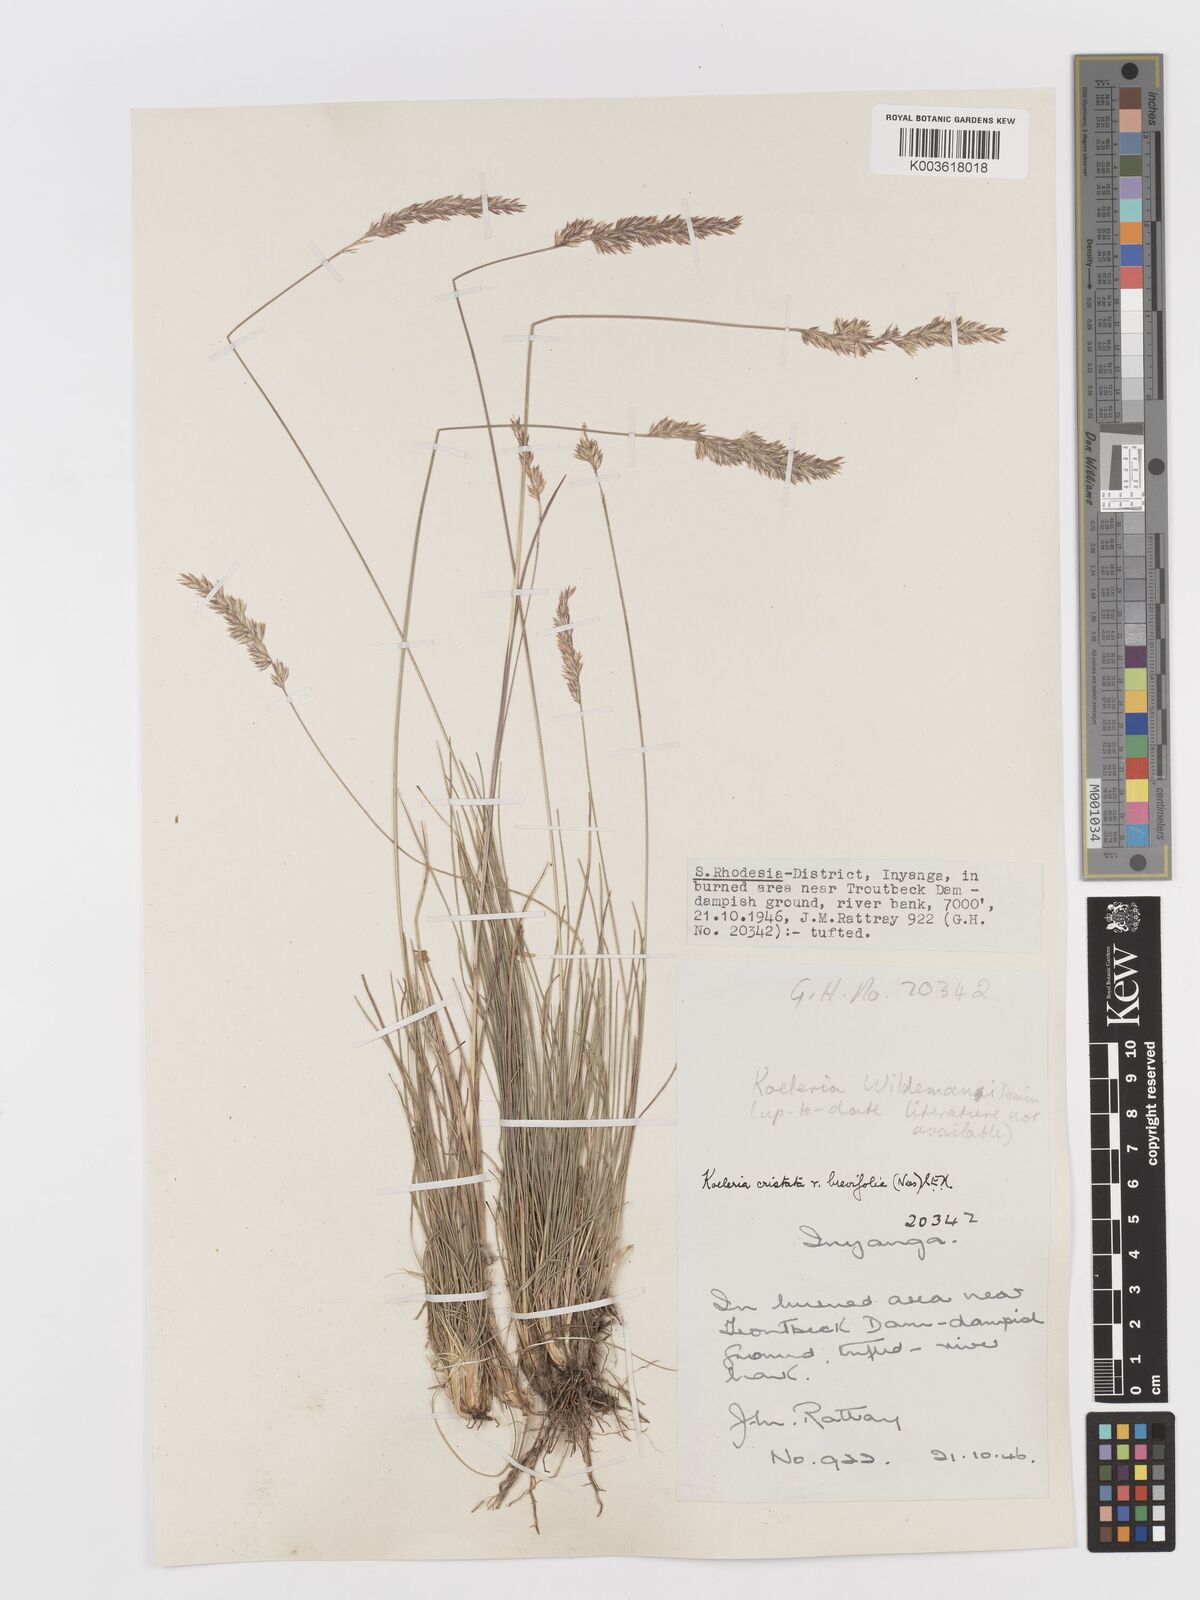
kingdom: Plantae
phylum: Tracheophyta
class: Liliopsida
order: Poales
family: Poaceae
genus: Koeleria
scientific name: Koeleria capensis
